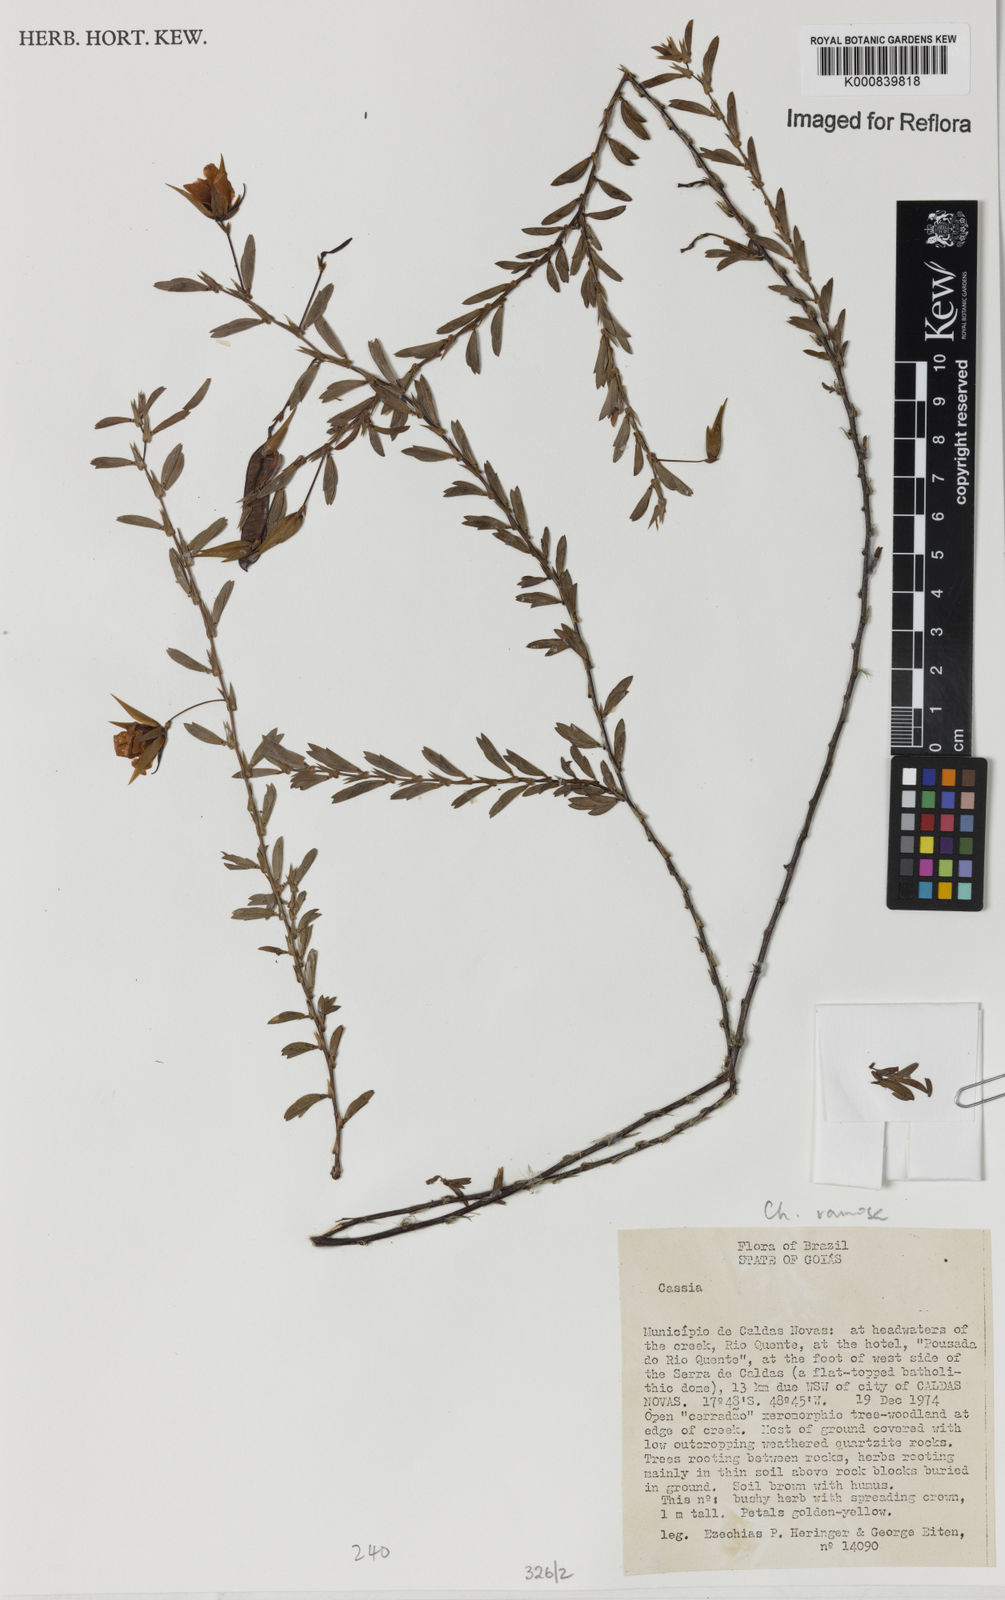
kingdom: Plantae
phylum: Tracheophyta
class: Magnoliopsida
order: Fabales
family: Fabaceae
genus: Chamaecrista
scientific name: Chamaecrista ramosa
